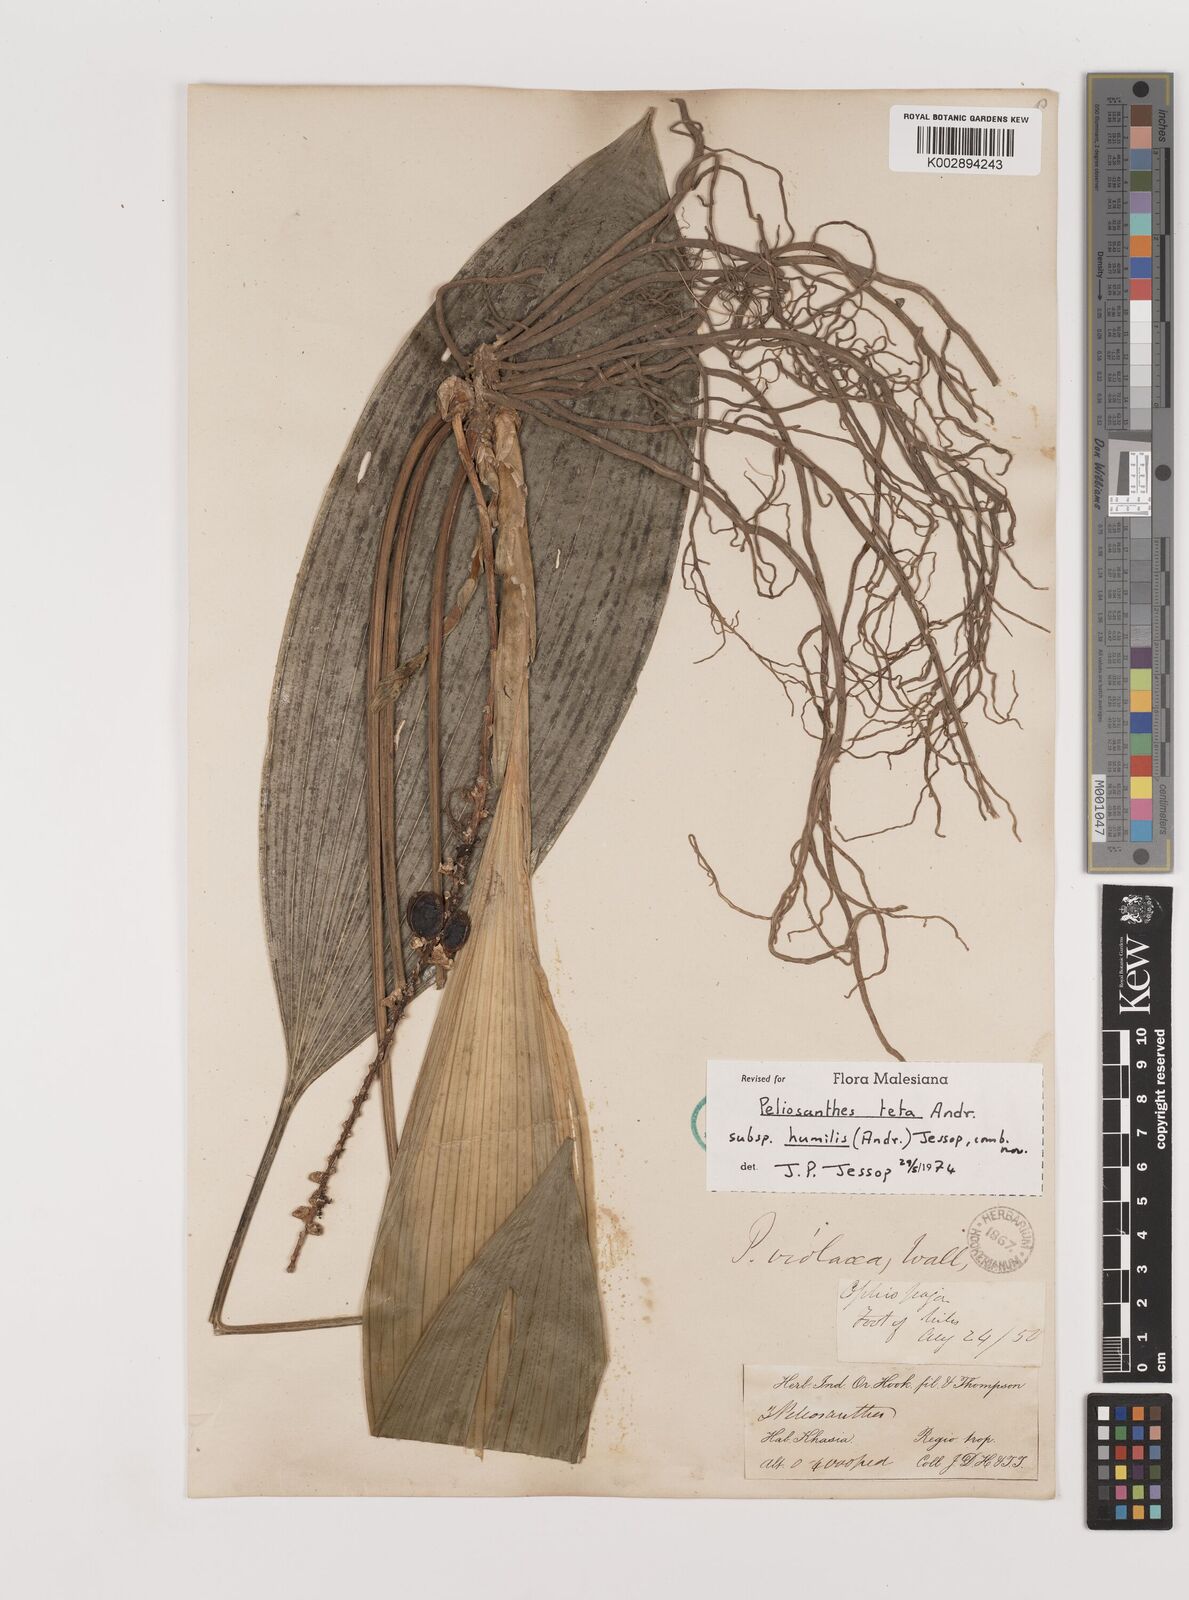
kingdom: Plantae
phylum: Tracheophyta
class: Liliopsida
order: Asparagales
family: Asparagaceae
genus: Peliosanthes
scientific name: Peliosanthes teta
